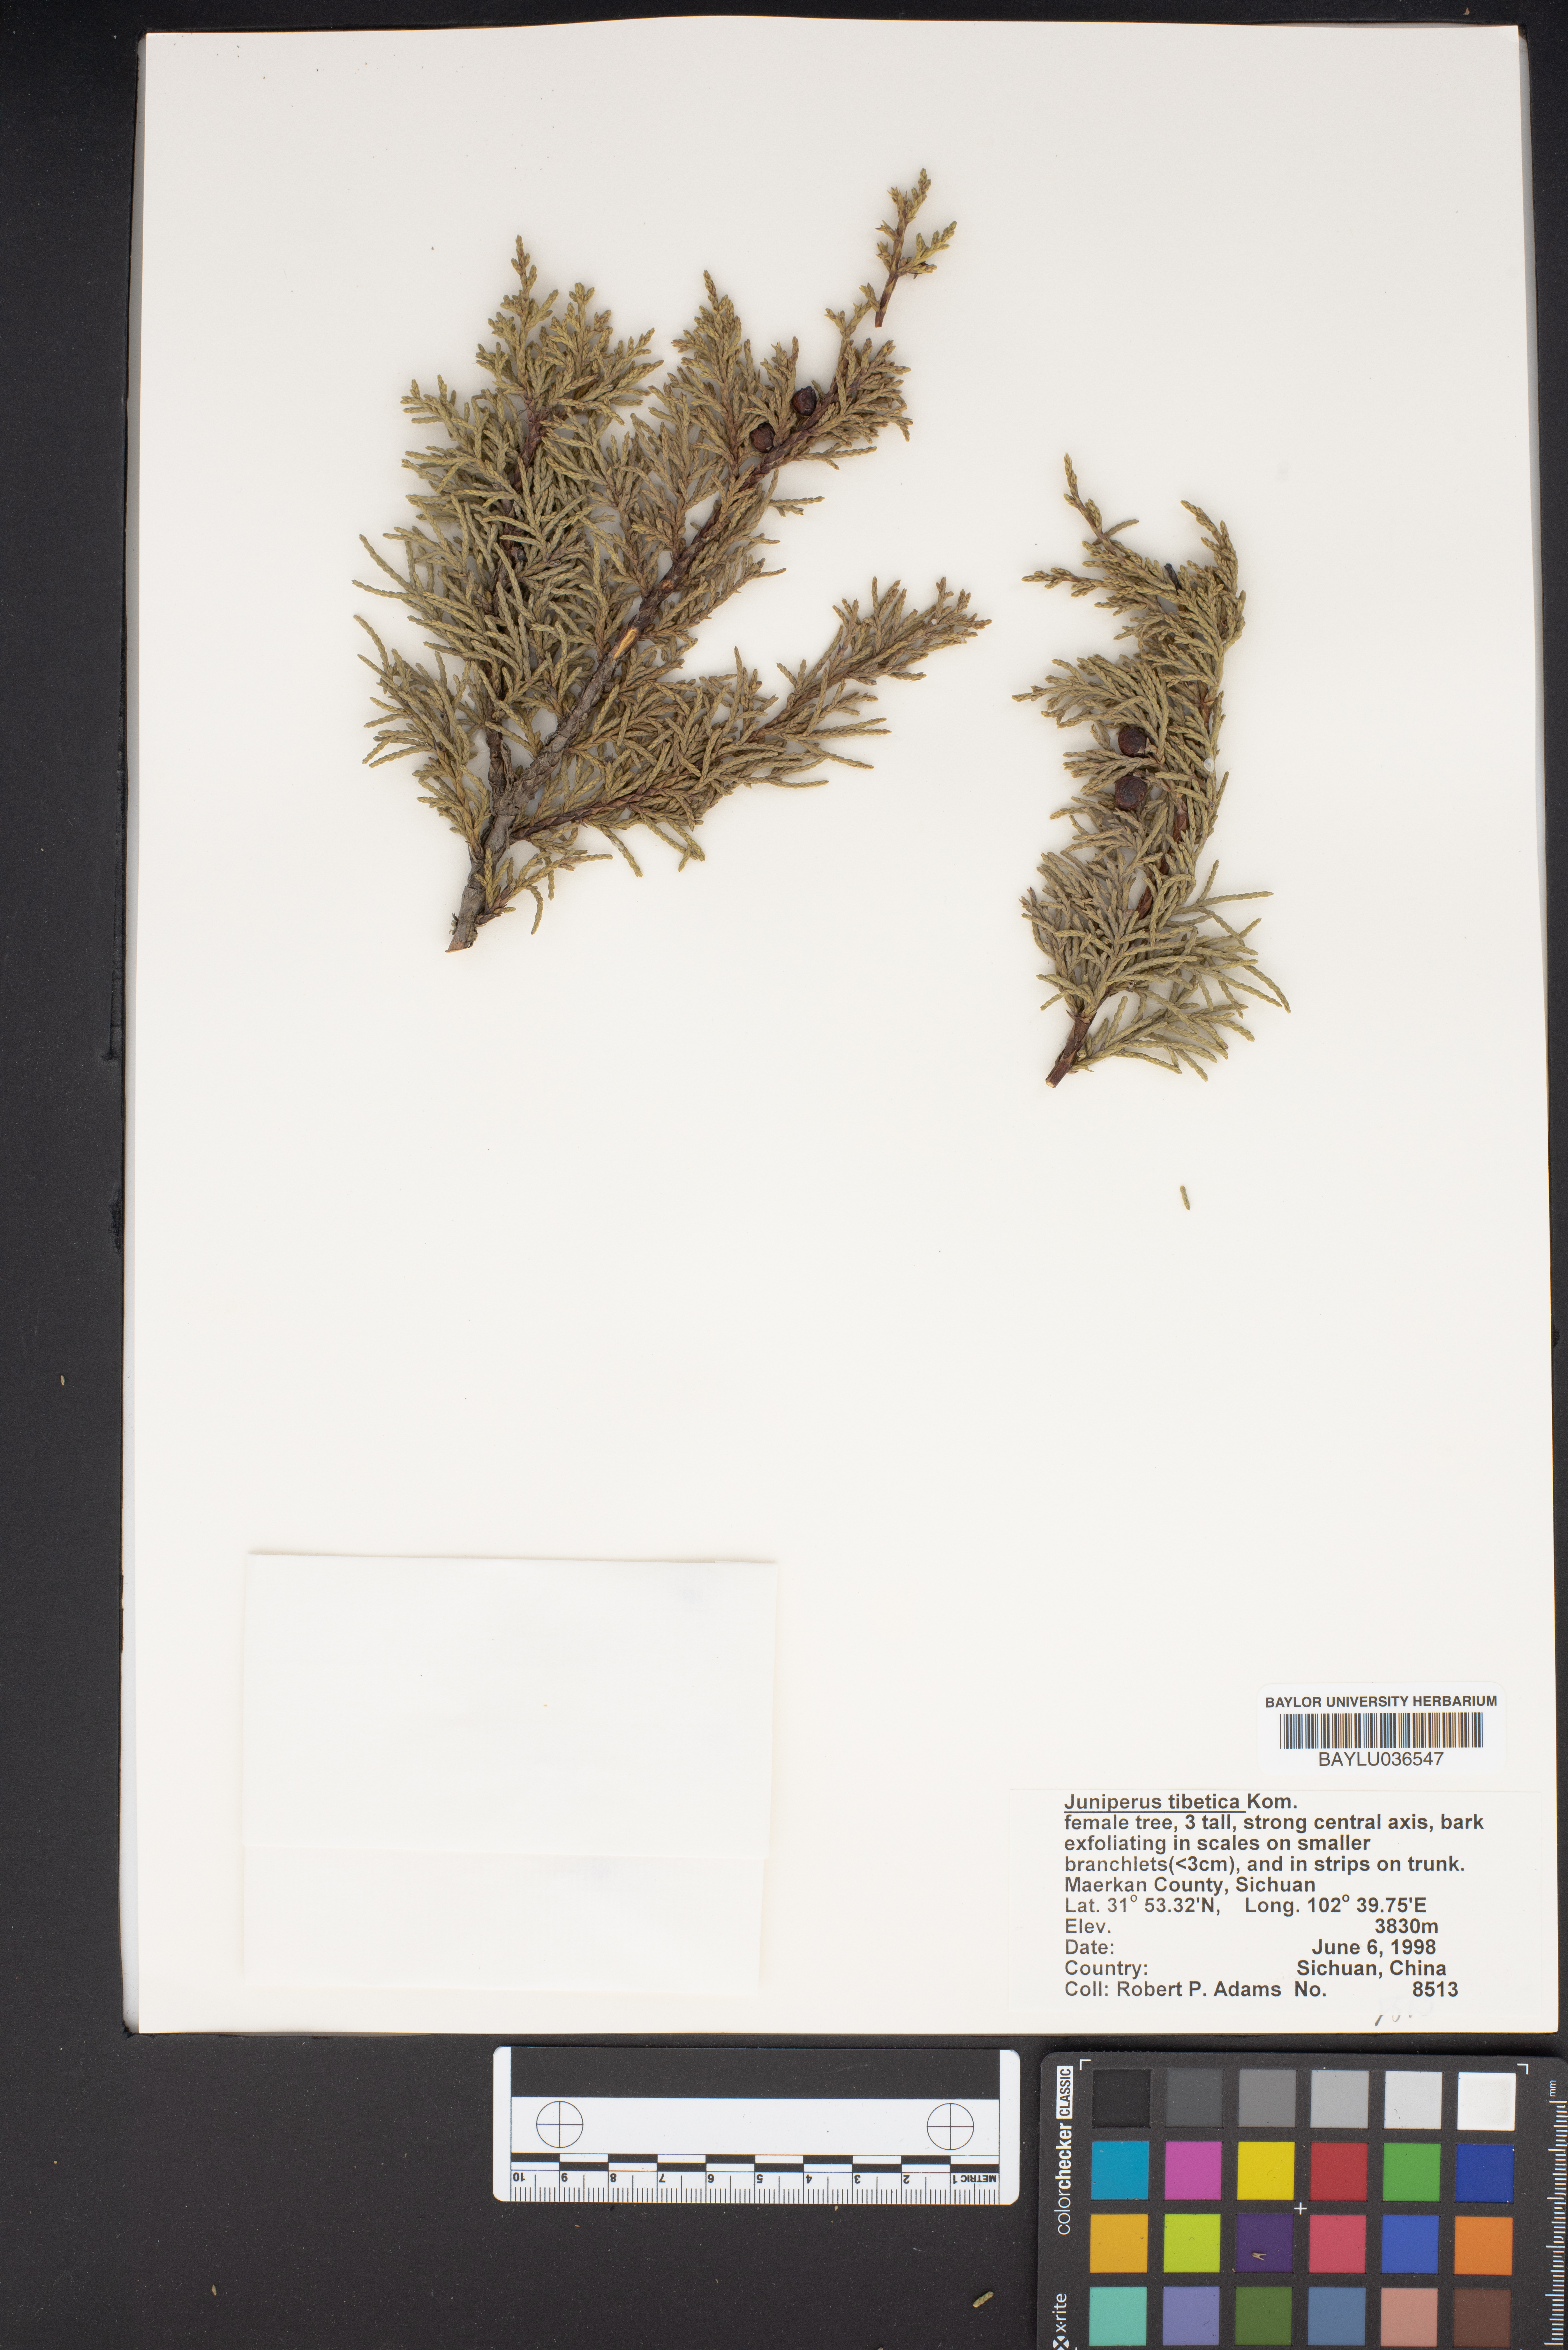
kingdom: Plantae
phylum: Tracheophyta
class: Pinopsida
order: Pinales
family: Cupressaceae
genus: Juniperus
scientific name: Juniperus tibetica
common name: Tibetan juniper
